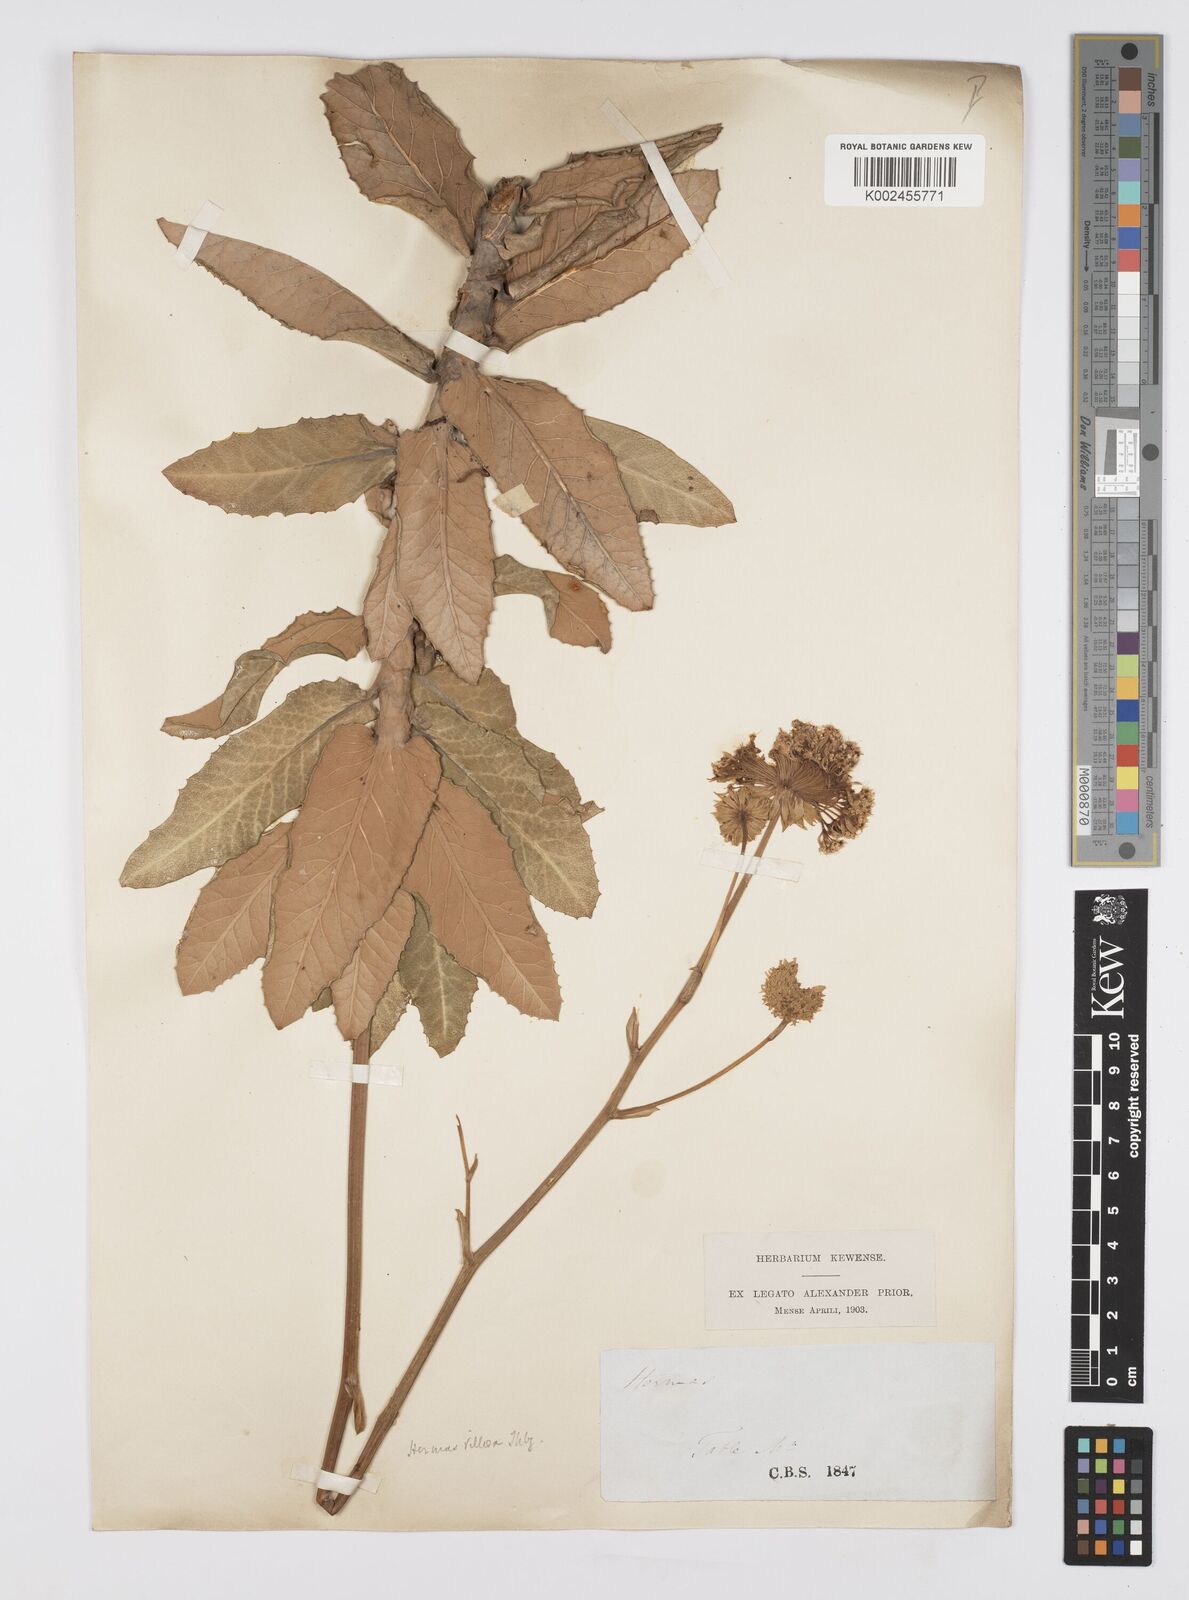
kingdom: Plantae
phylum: Tracheophyta
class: Magnoliopsida
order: Apiales
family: Apiaceae
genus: Hermas
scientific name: Hermas villosa
